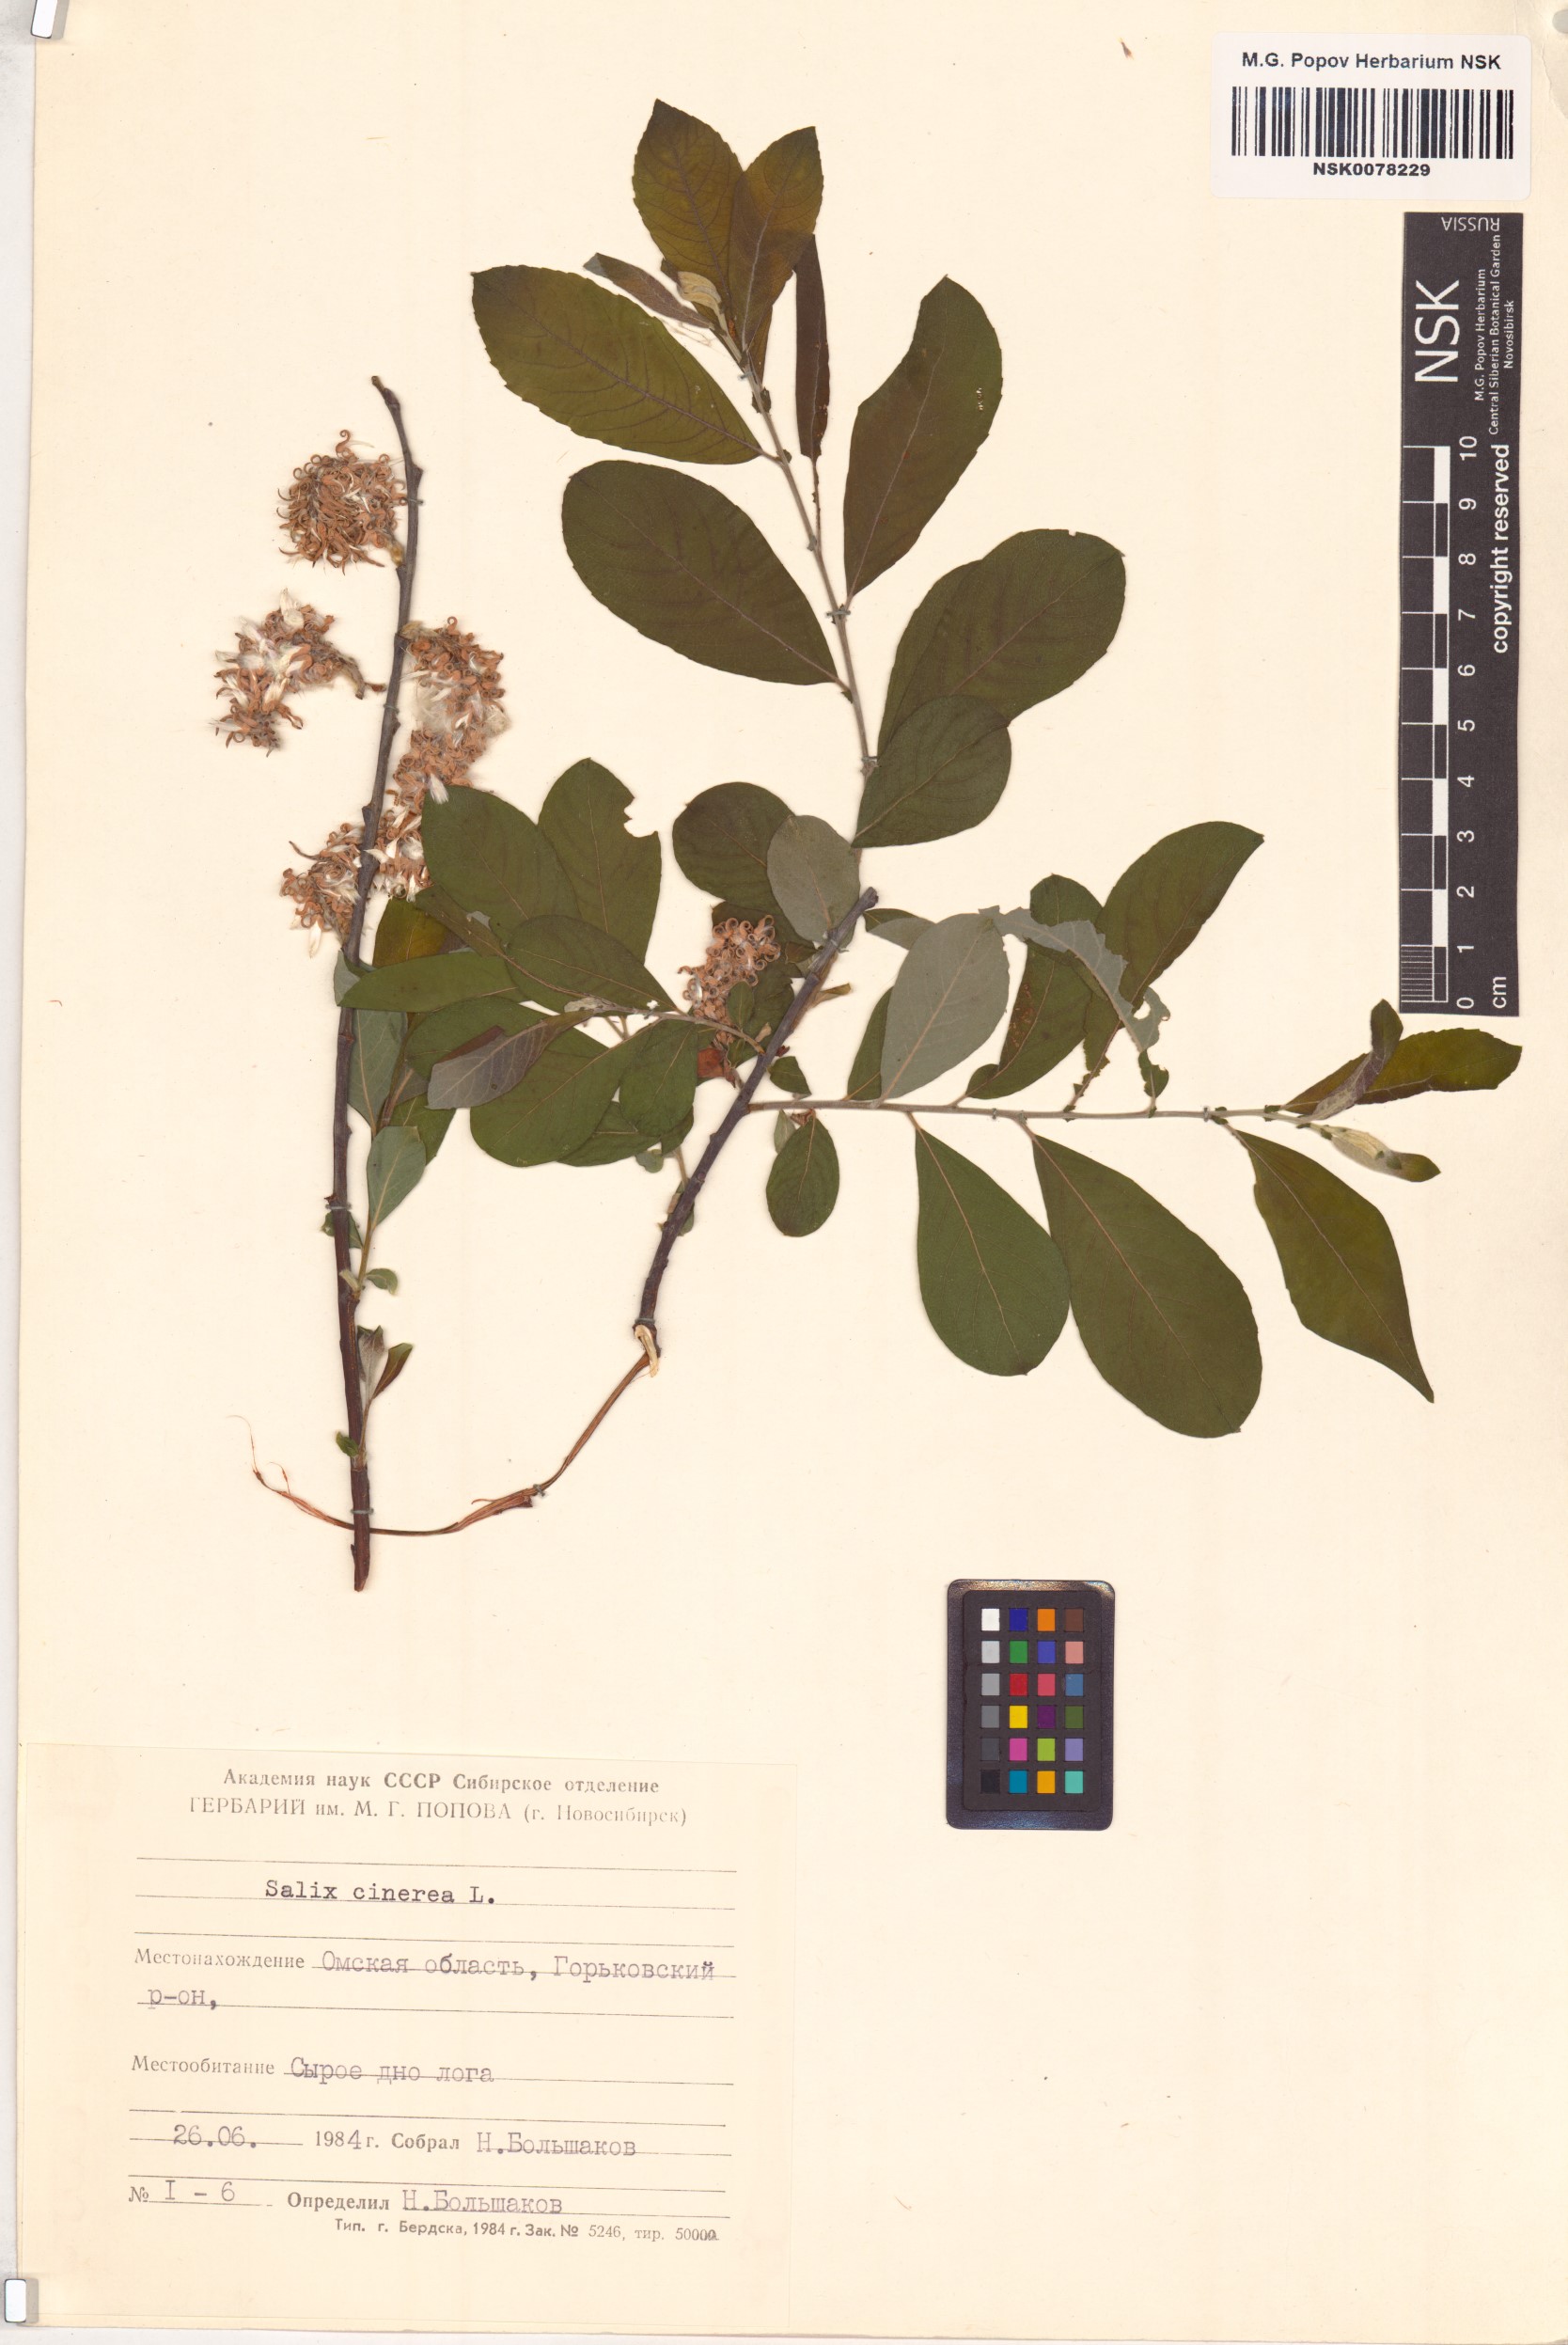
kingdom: Plantae
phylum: Tracheophyta
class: Magnoliopsida
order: Malpighiales
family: Salicaceae
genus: Salix
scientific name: Salix cinerea
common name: Common sallow
